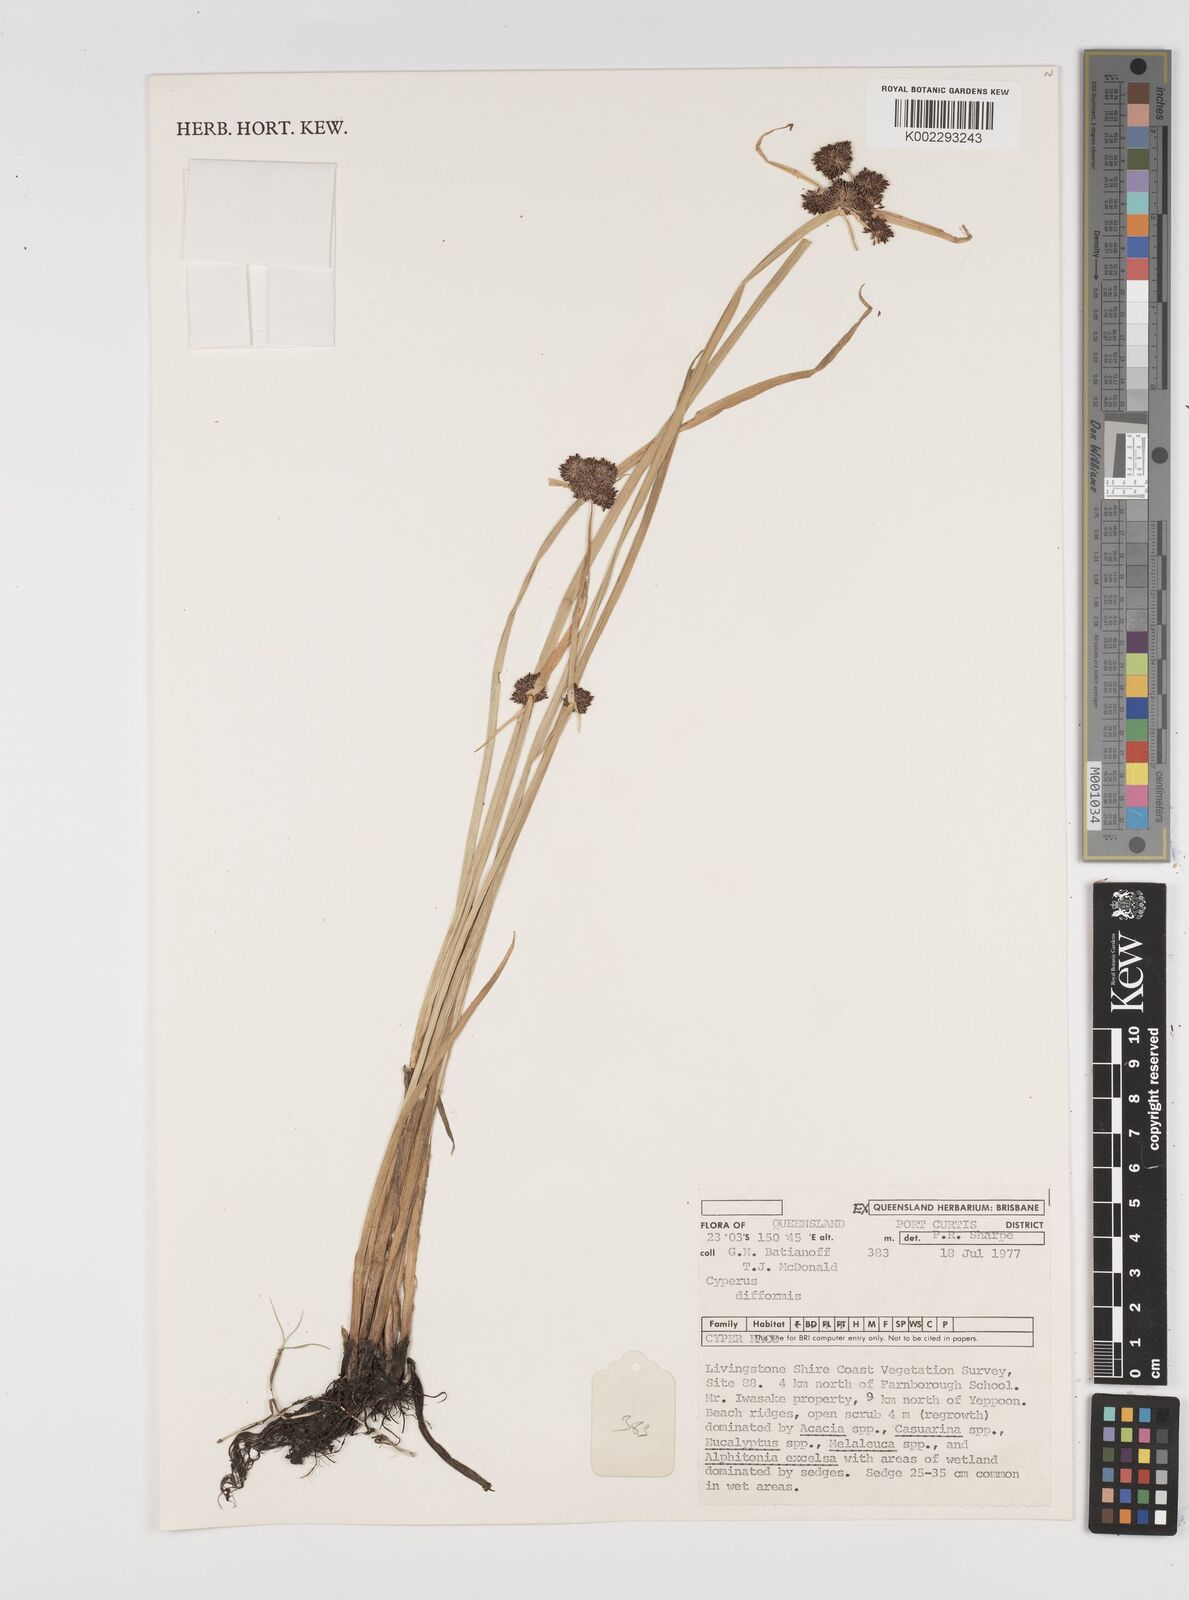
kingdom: Plantae
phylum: Tracheophyta
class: Liliopsida
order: Poales
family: Cyperaceae
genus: Cyperus
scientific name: Cyperus difformis
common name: Variable flatsedge
